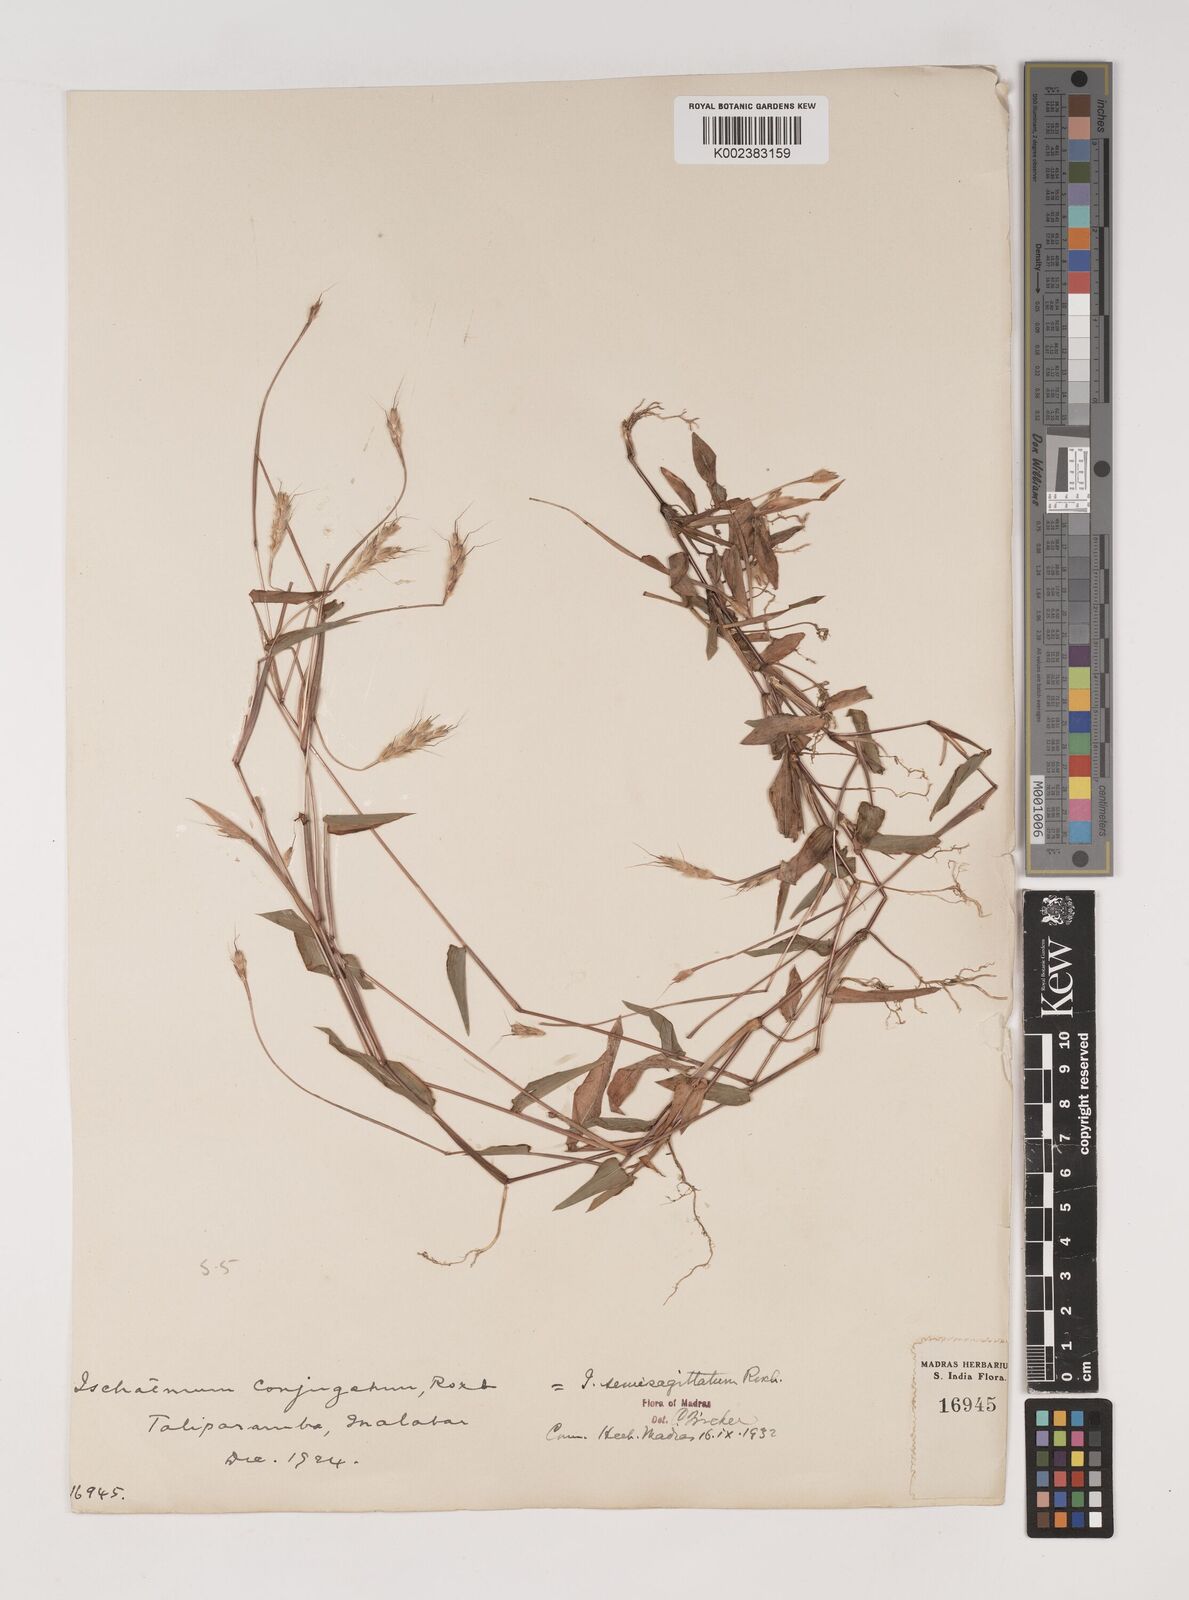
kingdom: Plantae
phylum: Tracheophyta
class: Liliopsida
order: Poales
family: Poaceae
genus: Ischaemum
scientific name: Ischaemum semisagittatum
